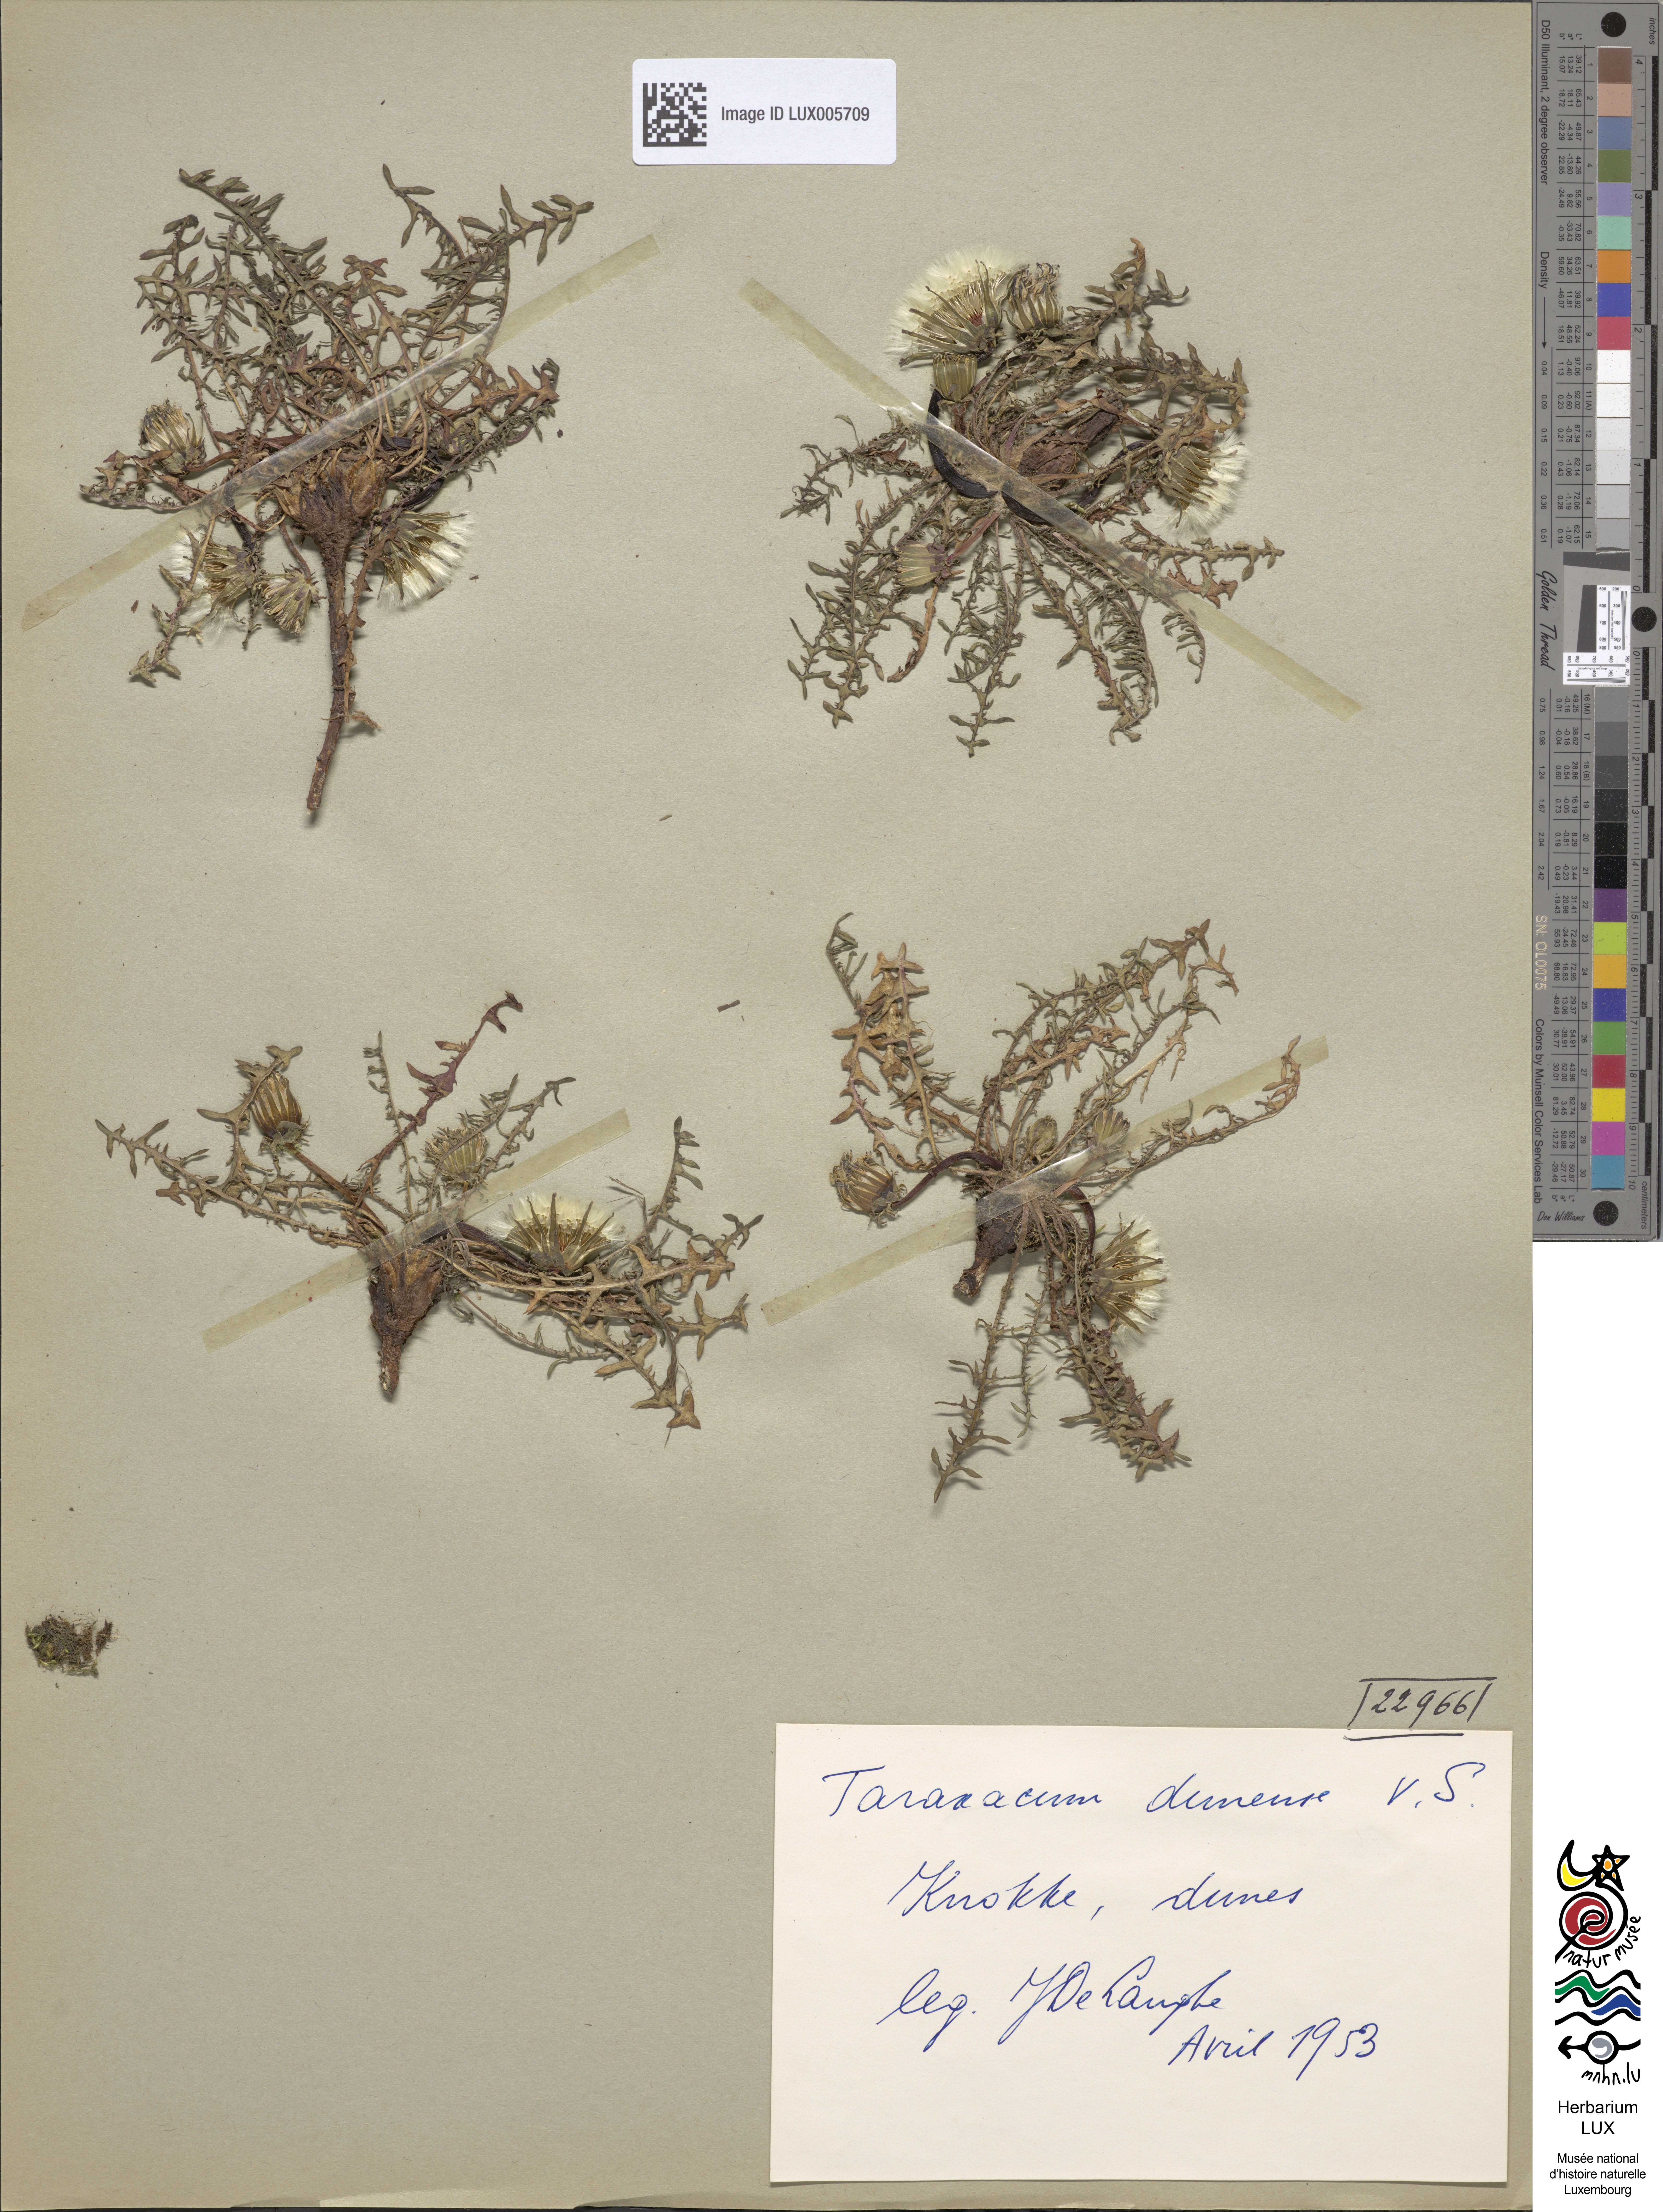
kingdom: Plantae
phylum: Tracheophyta
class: Magnoliopsida
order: Asterales
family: Asteraceae
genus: Taraxacum
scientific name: Taraxacum dunense
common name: Dune dandelion
